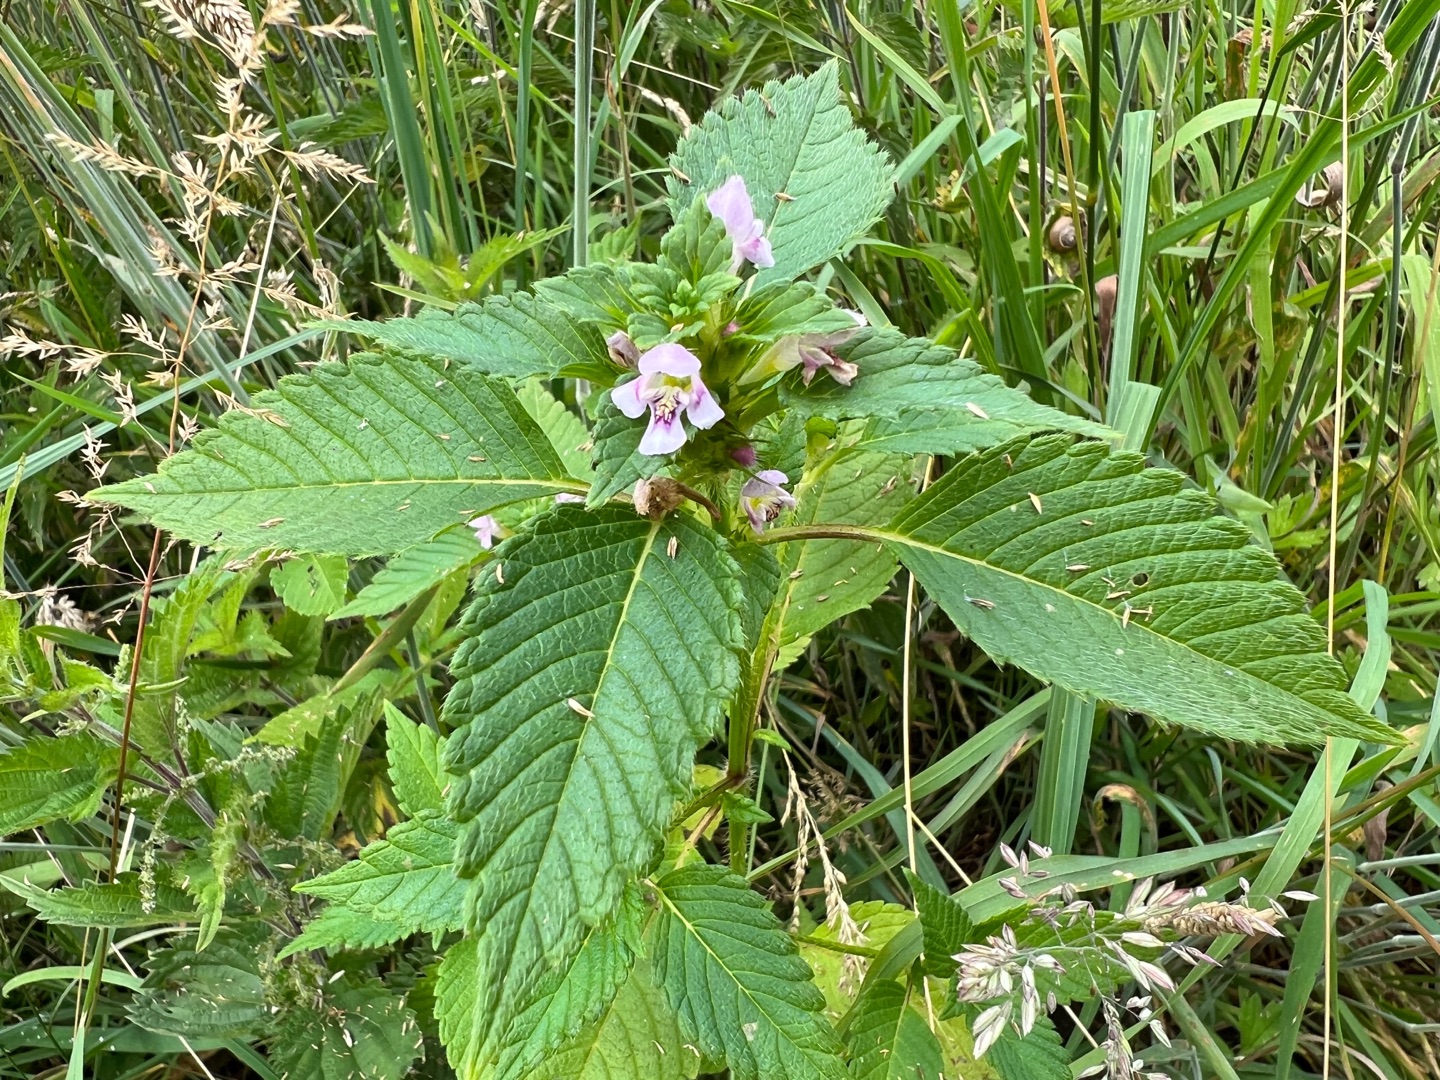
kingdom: Plantae
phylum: Tracheophyta
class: Magnoliopsida
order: Lamiales
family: Lamiaceae
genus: Galeopsis
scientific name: Galeopsis tetrahit
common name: Almindelig hanekro
